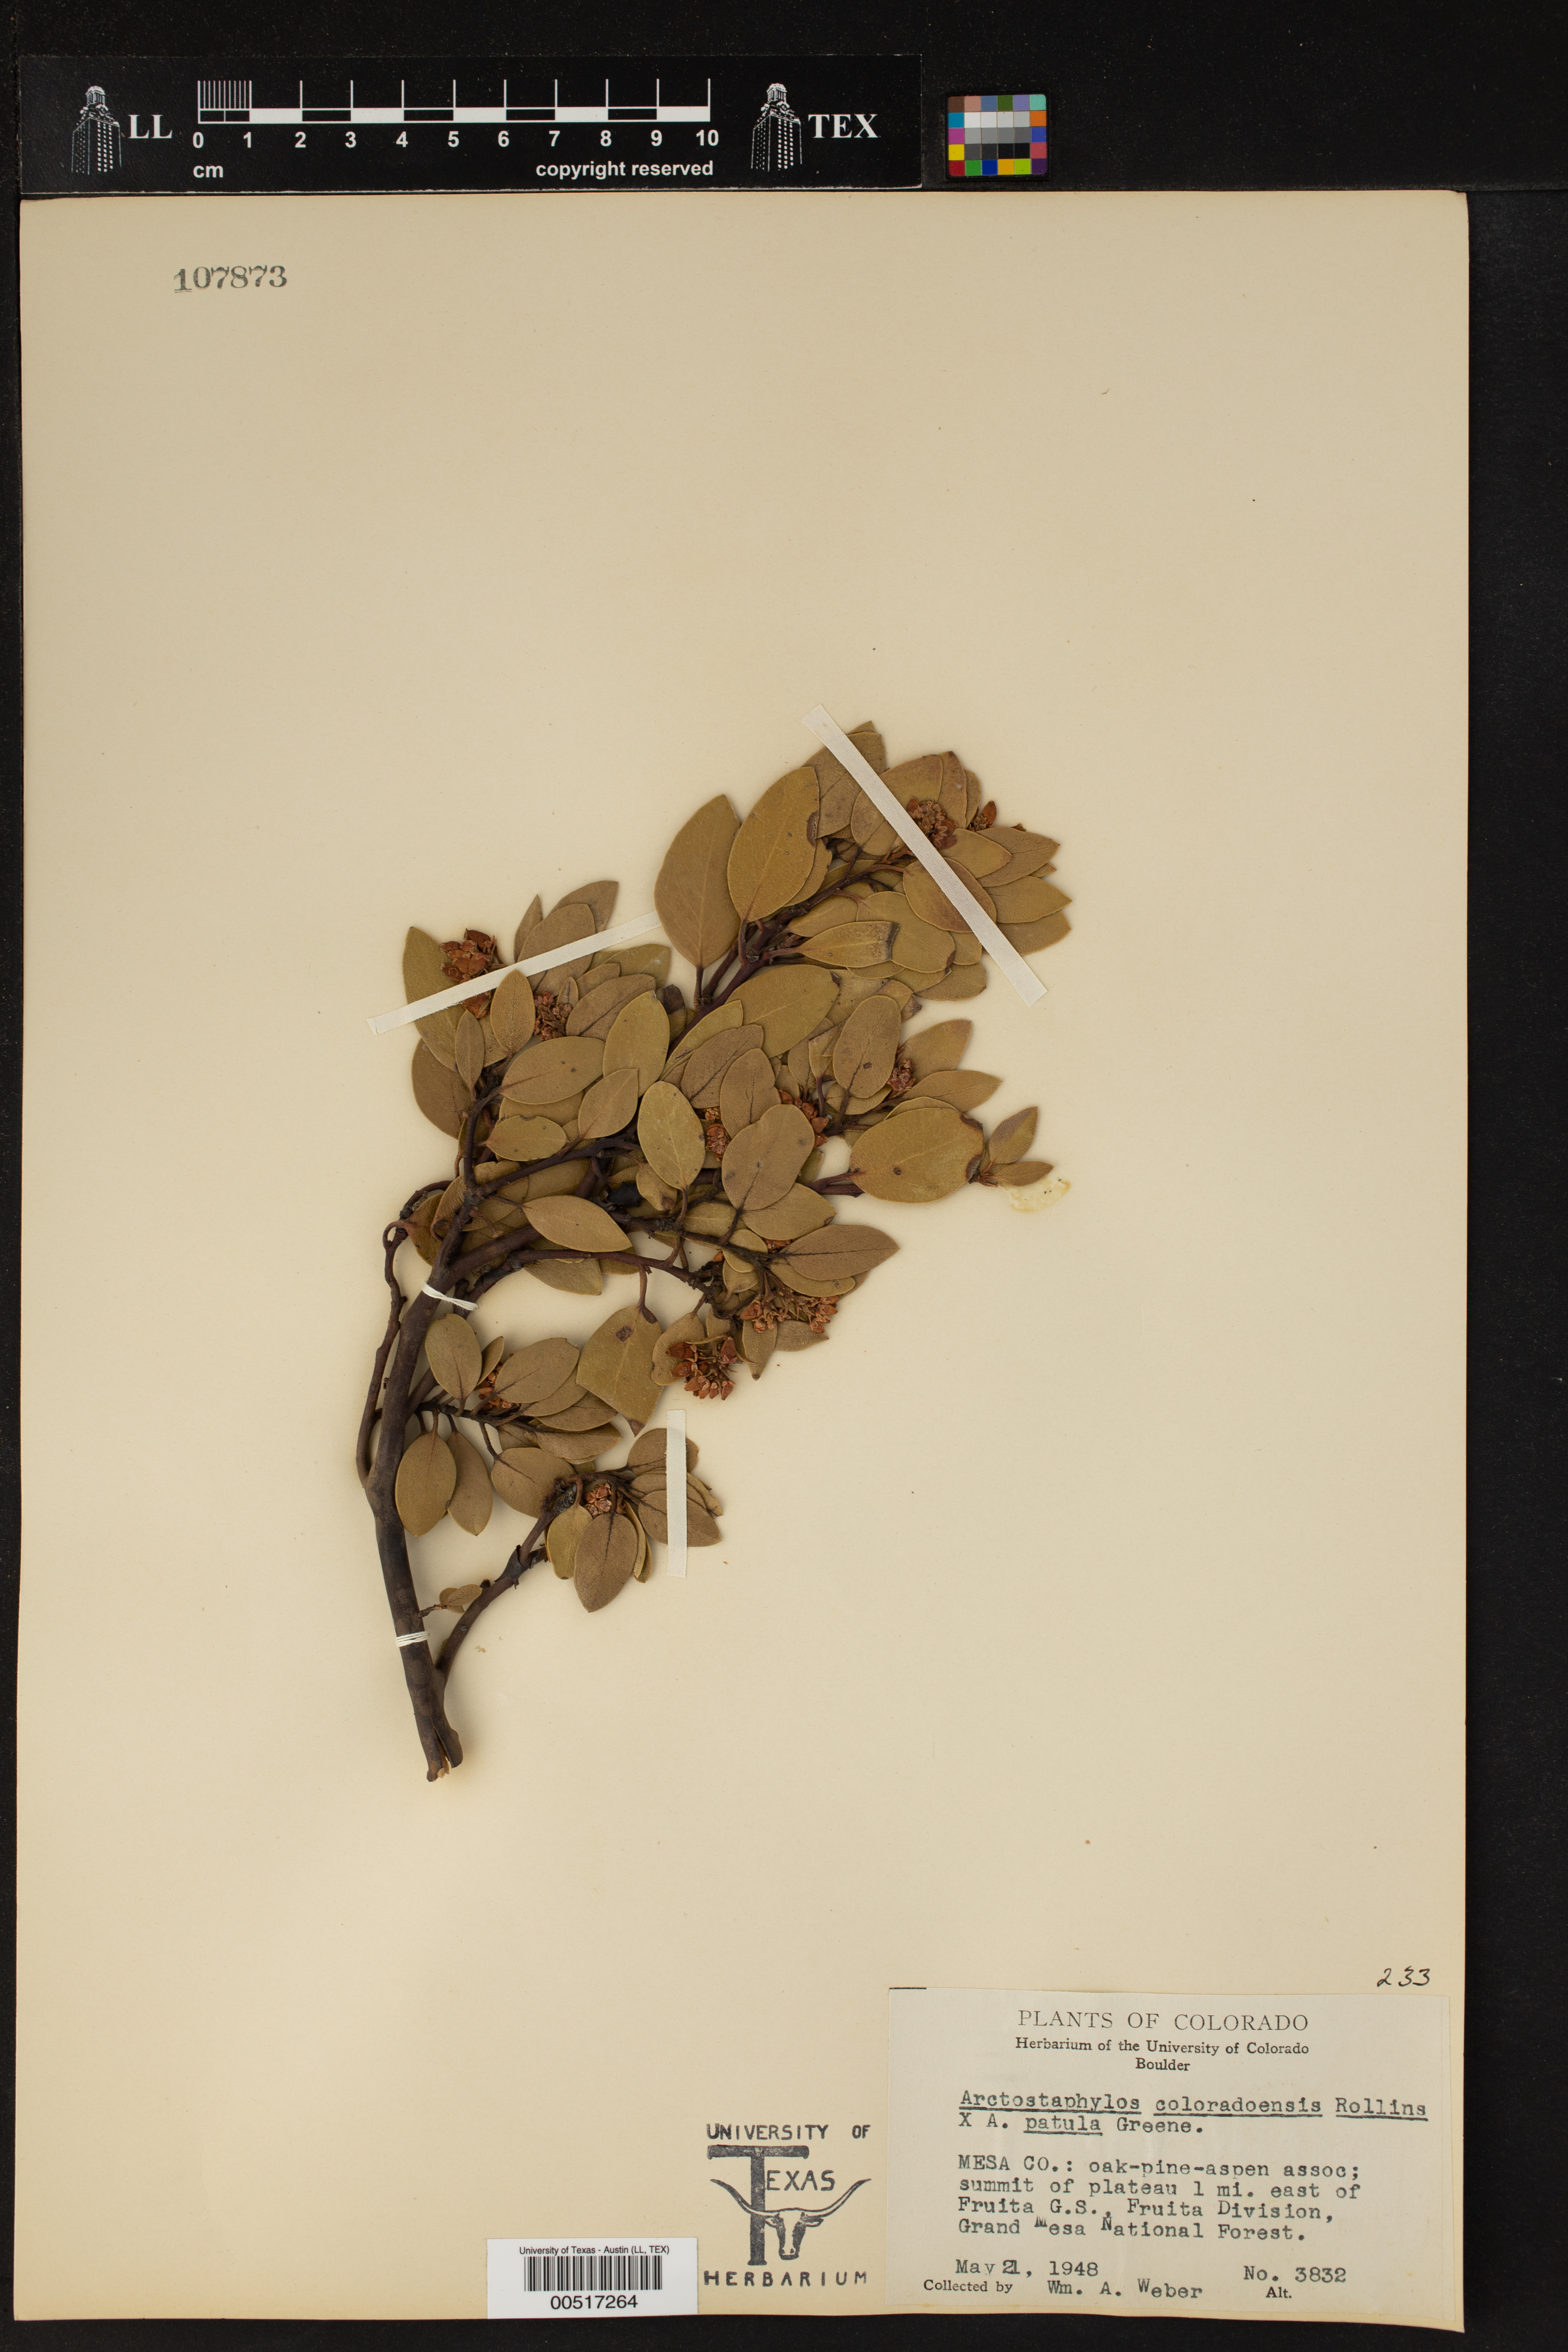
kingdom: Plantae
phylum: Tracheophyta
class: Magnoliopsida
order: Ericales
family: Ericaceae
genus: Arctostaphylos
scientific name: Arctostaphylos coloradensis
